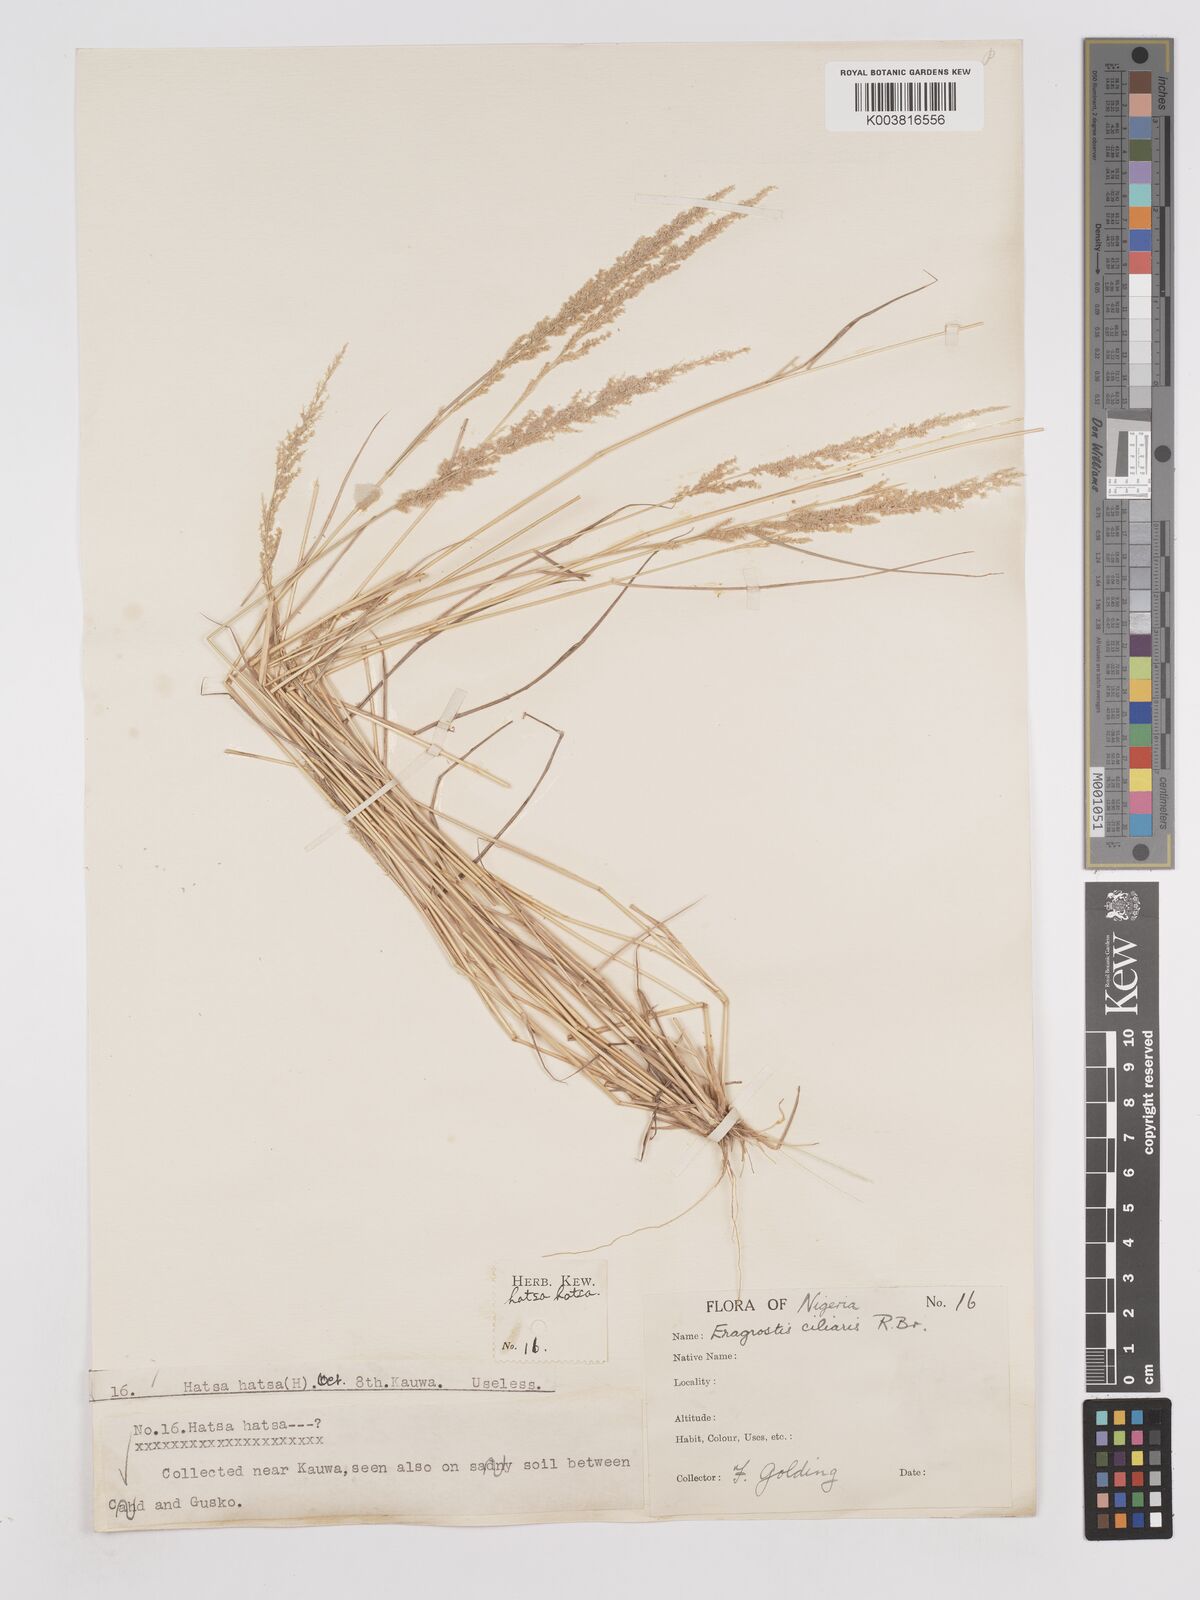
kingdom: Plantae
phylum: Tracheophyta
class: Liliopsida
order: Poales
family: Poaceae
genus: Eragrostis
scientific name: Eragrostis ciliaris
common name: Gophertail lovegrass
